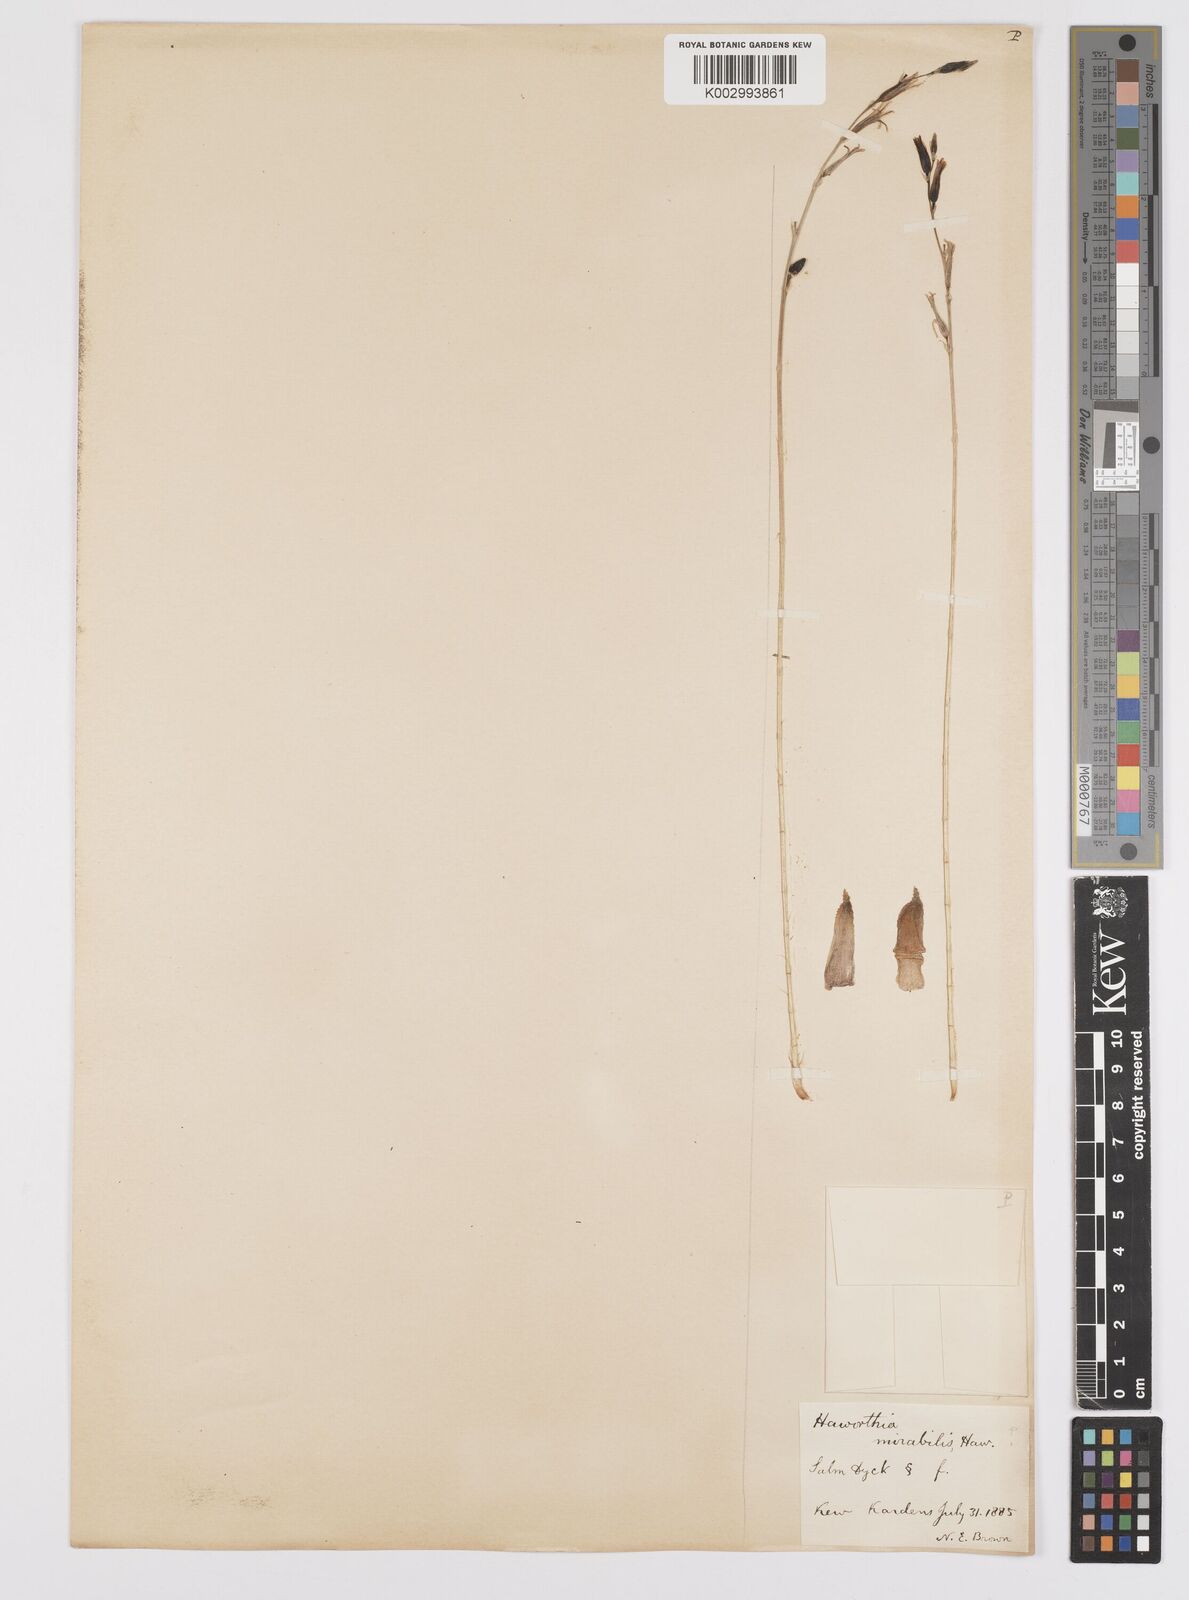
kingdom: Plantae
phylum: Tracheophyta
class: Liliopsida
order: Asparagales
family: Asphodelaceae
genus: Haworthia
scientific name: Haworthia mirabilis
